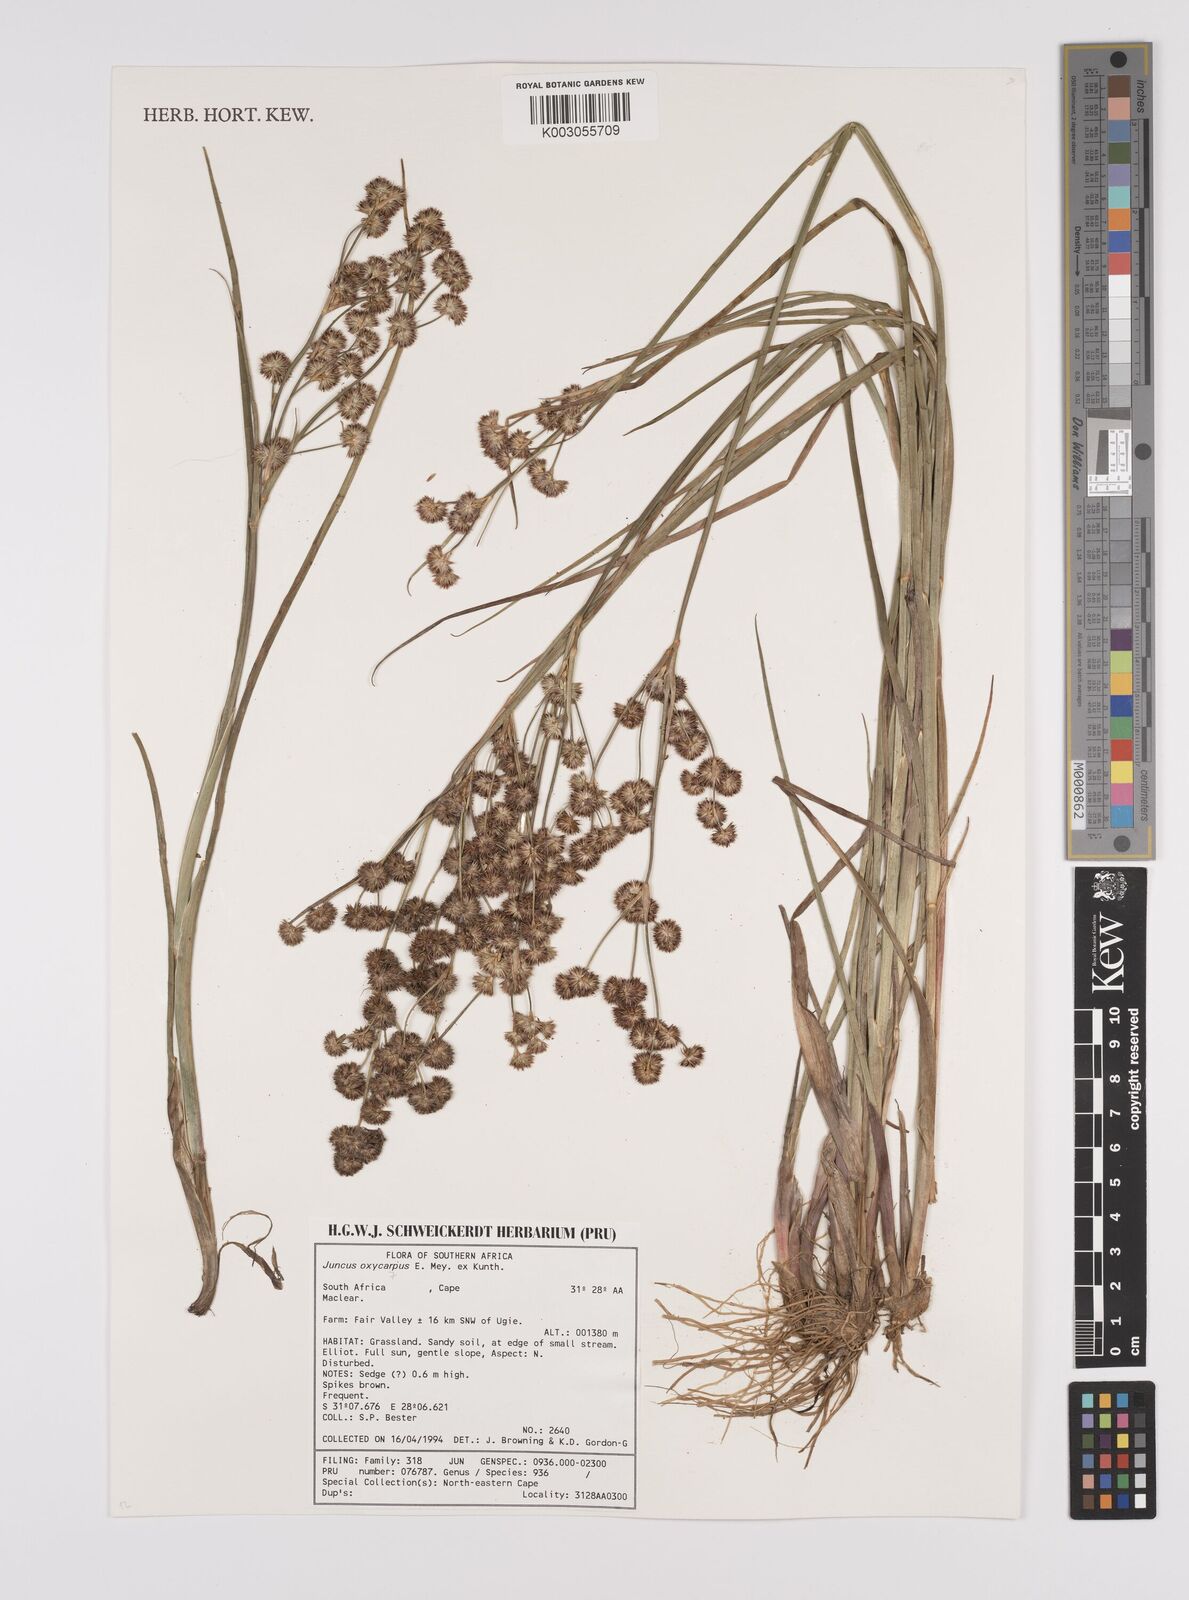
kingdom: Plantae
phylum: Tracheophyta
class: Liliopsida
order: Poales
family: Juncaceae
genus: Juncus
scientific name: Juncus oxycarpus
